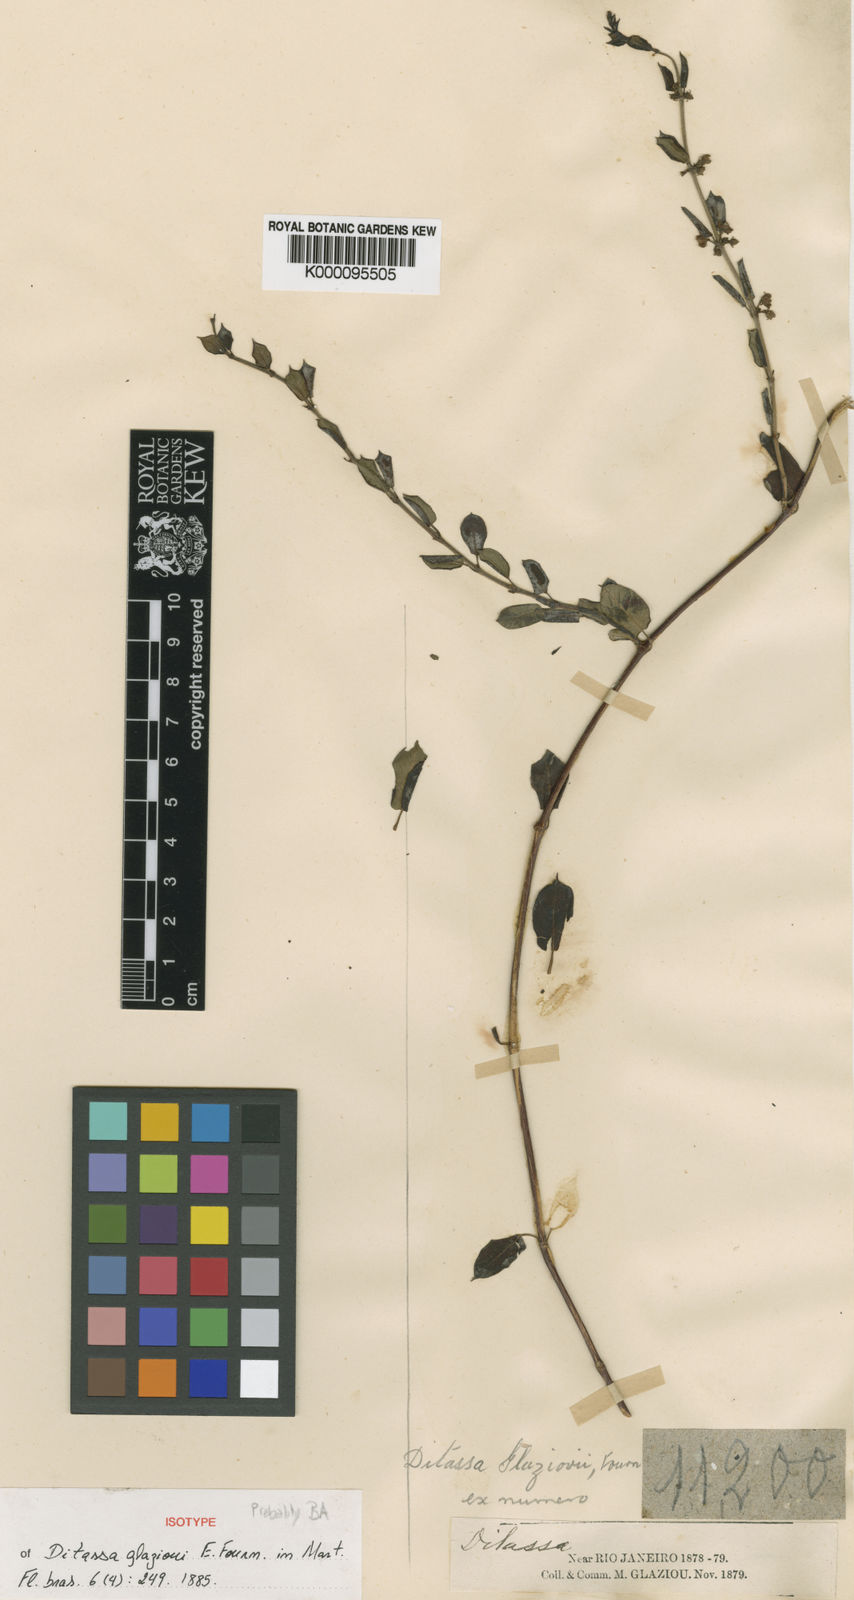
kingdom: Plantae
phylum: Tracheophyta
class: Magnoliopsida
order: Gentianales
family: Apocynaceae
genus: Ditassa
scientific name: Ditassa
